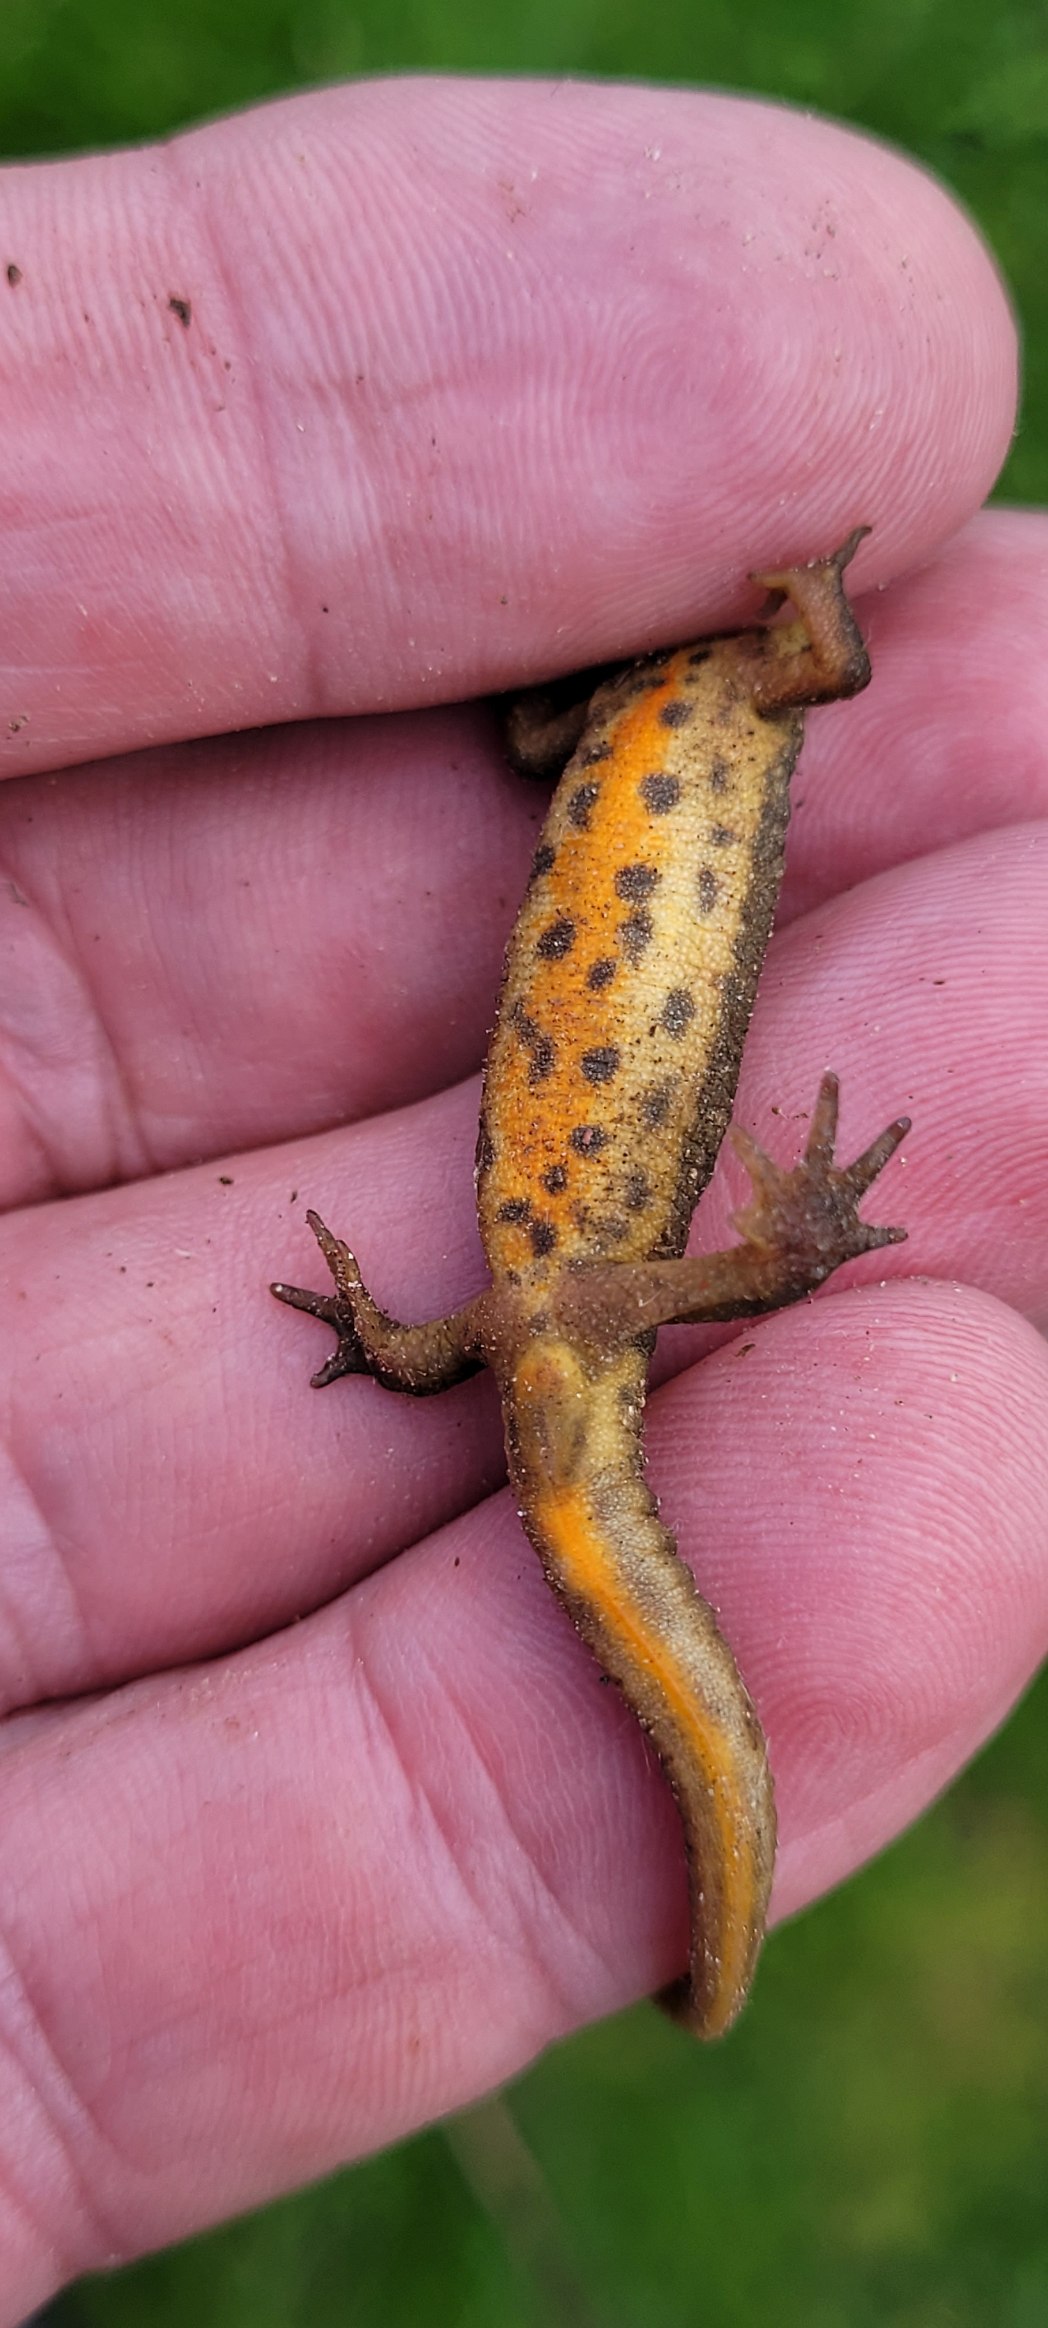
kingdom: Animalia
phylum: Chordata
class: Amphibia
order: Caudata
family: Salamandridae
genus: Lissotriton
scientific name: Lissotriton vulgaris
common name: Lille vandsalamander
